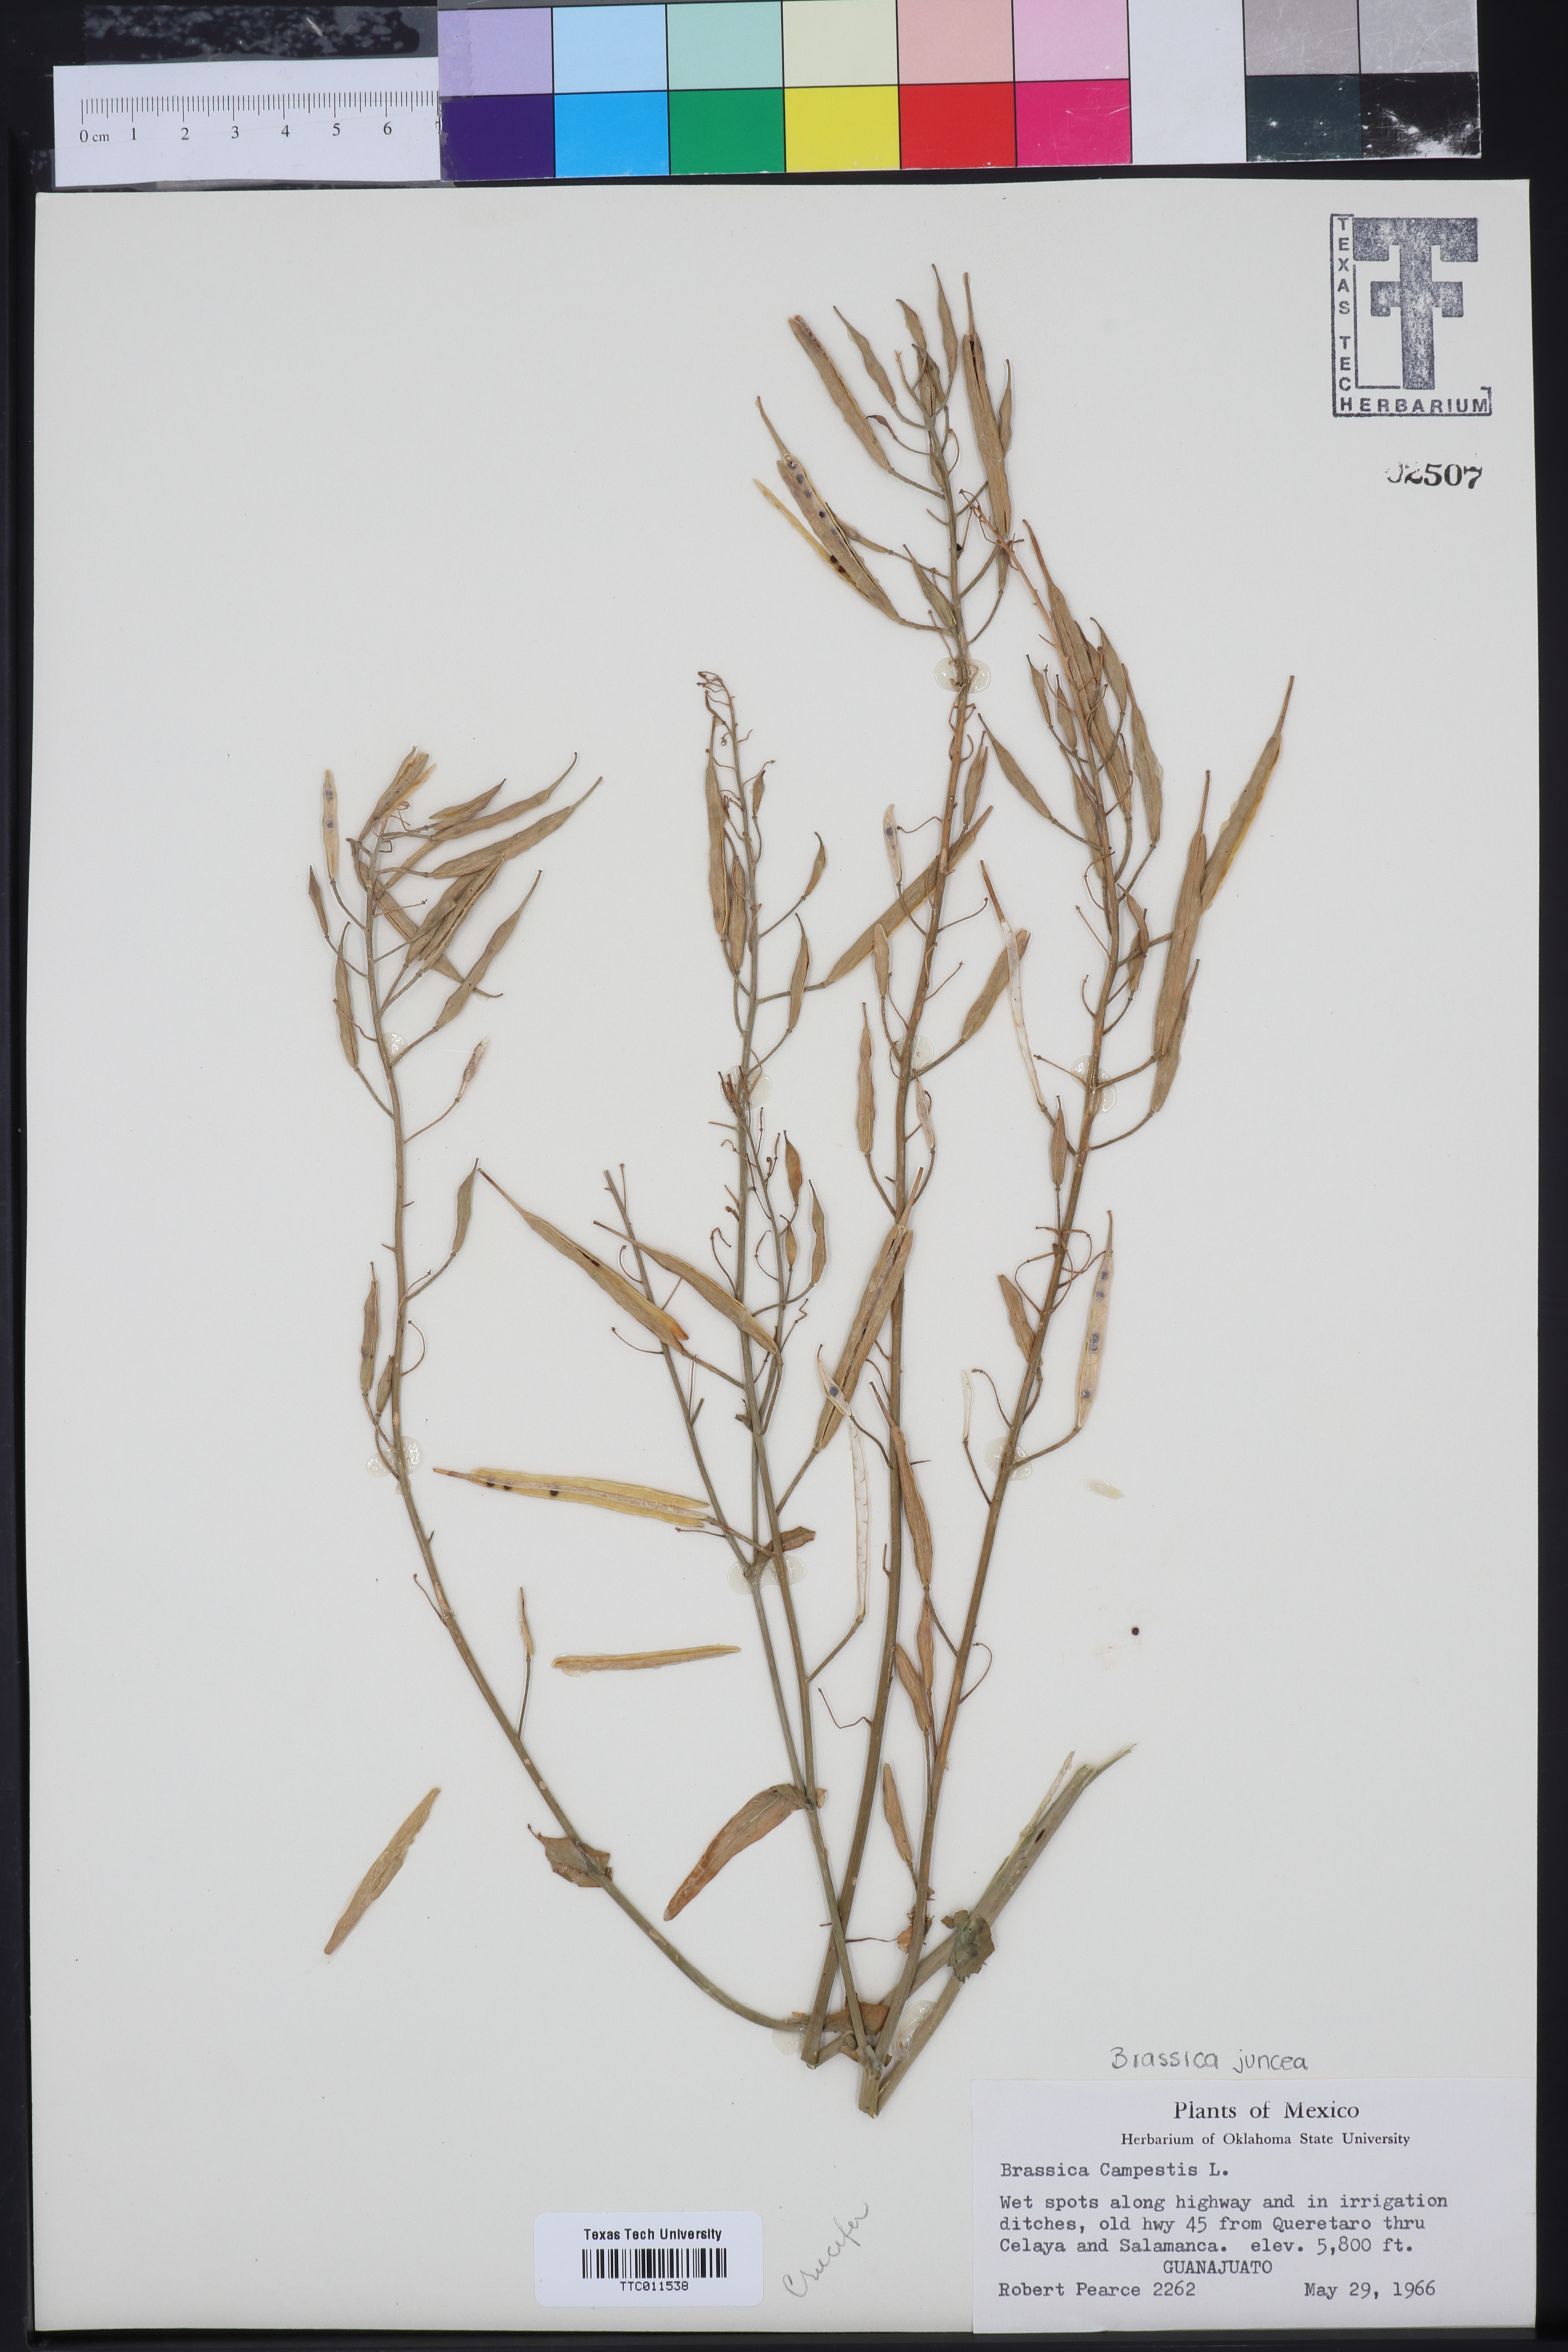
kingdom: Plantae
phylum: Tracheophyta
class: Magnoliopsida
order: Brassicales
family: Brassicaceae
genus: Brassica
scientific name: Brassica rapa
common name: Field mustard
